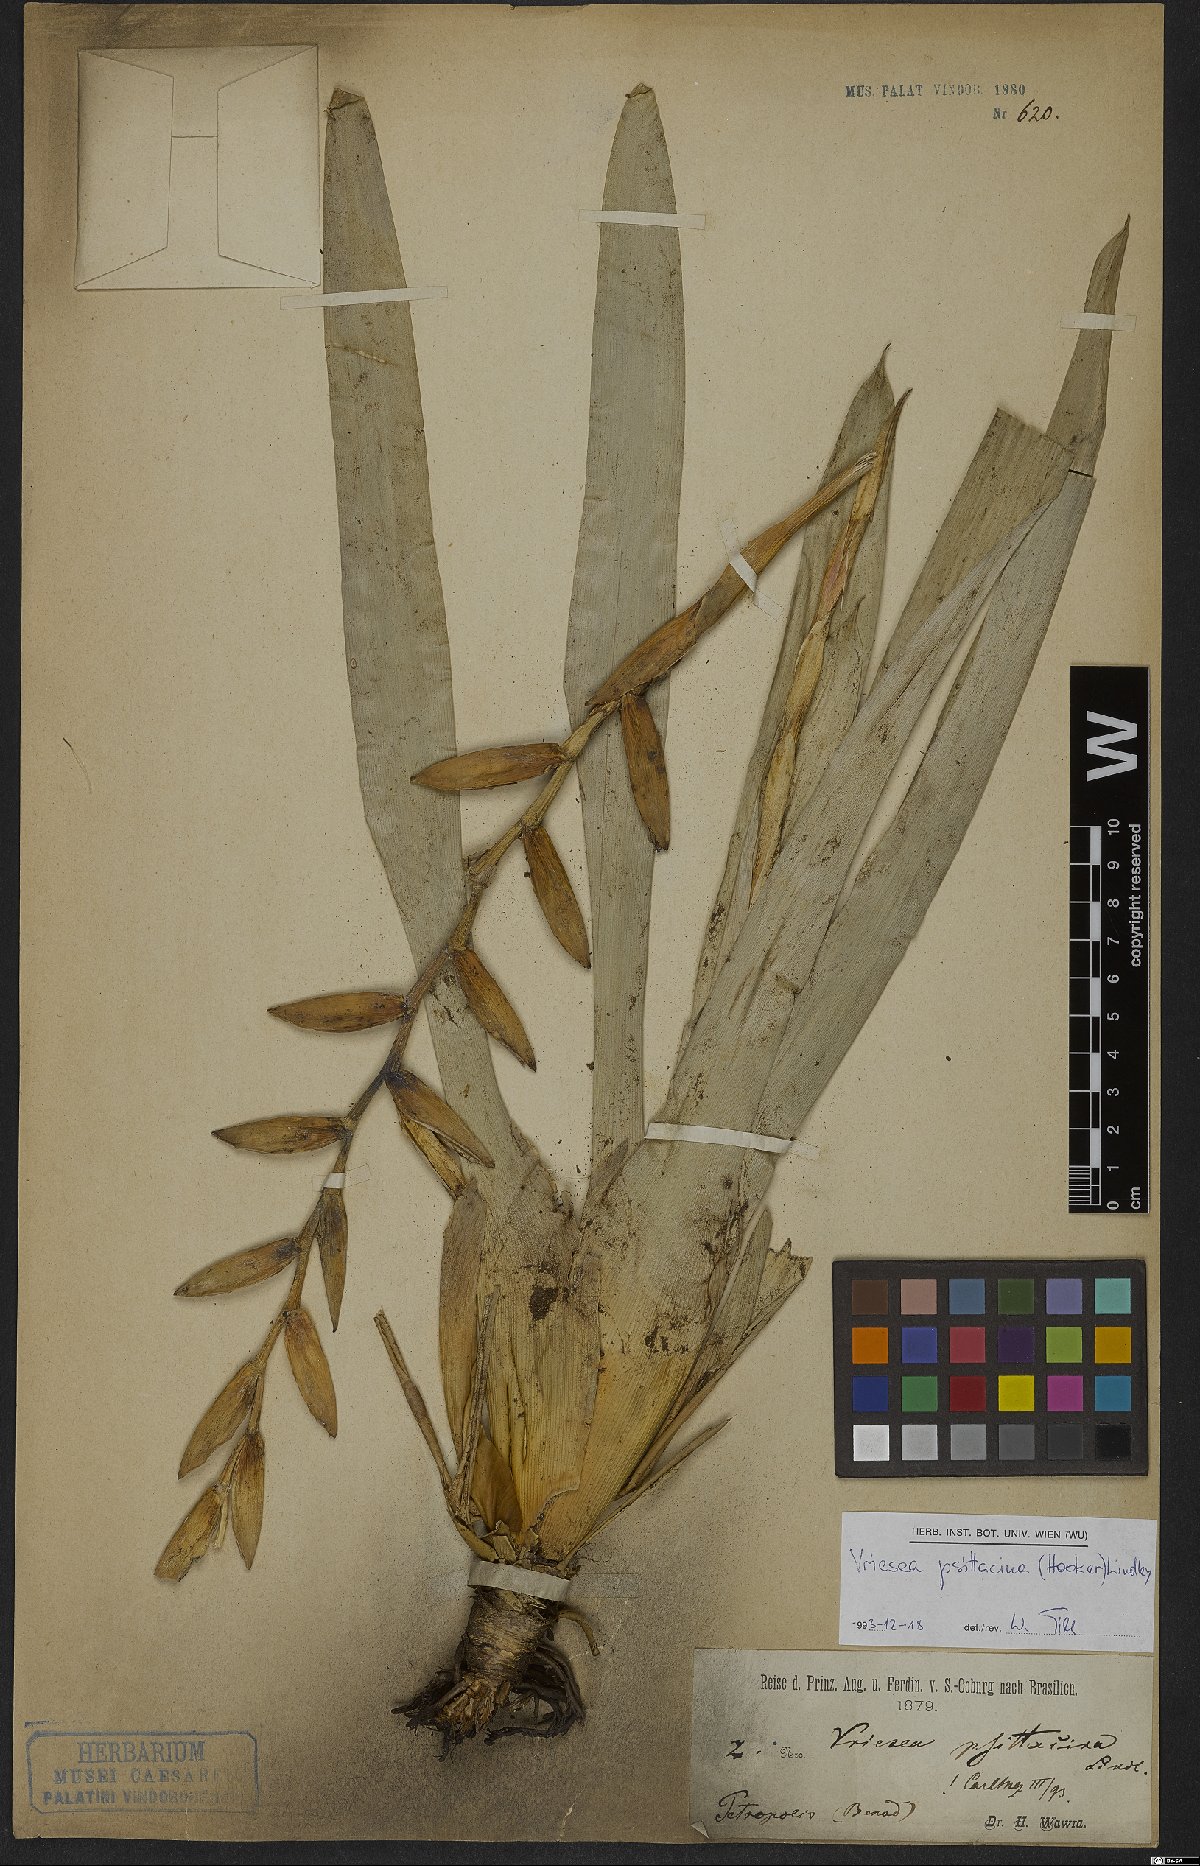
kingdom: Plantae
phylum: Tracheophyta
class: Liliopsida
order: Poales
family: Bromeliaceae
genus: Vriesea
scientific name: Vriesea psittacina
